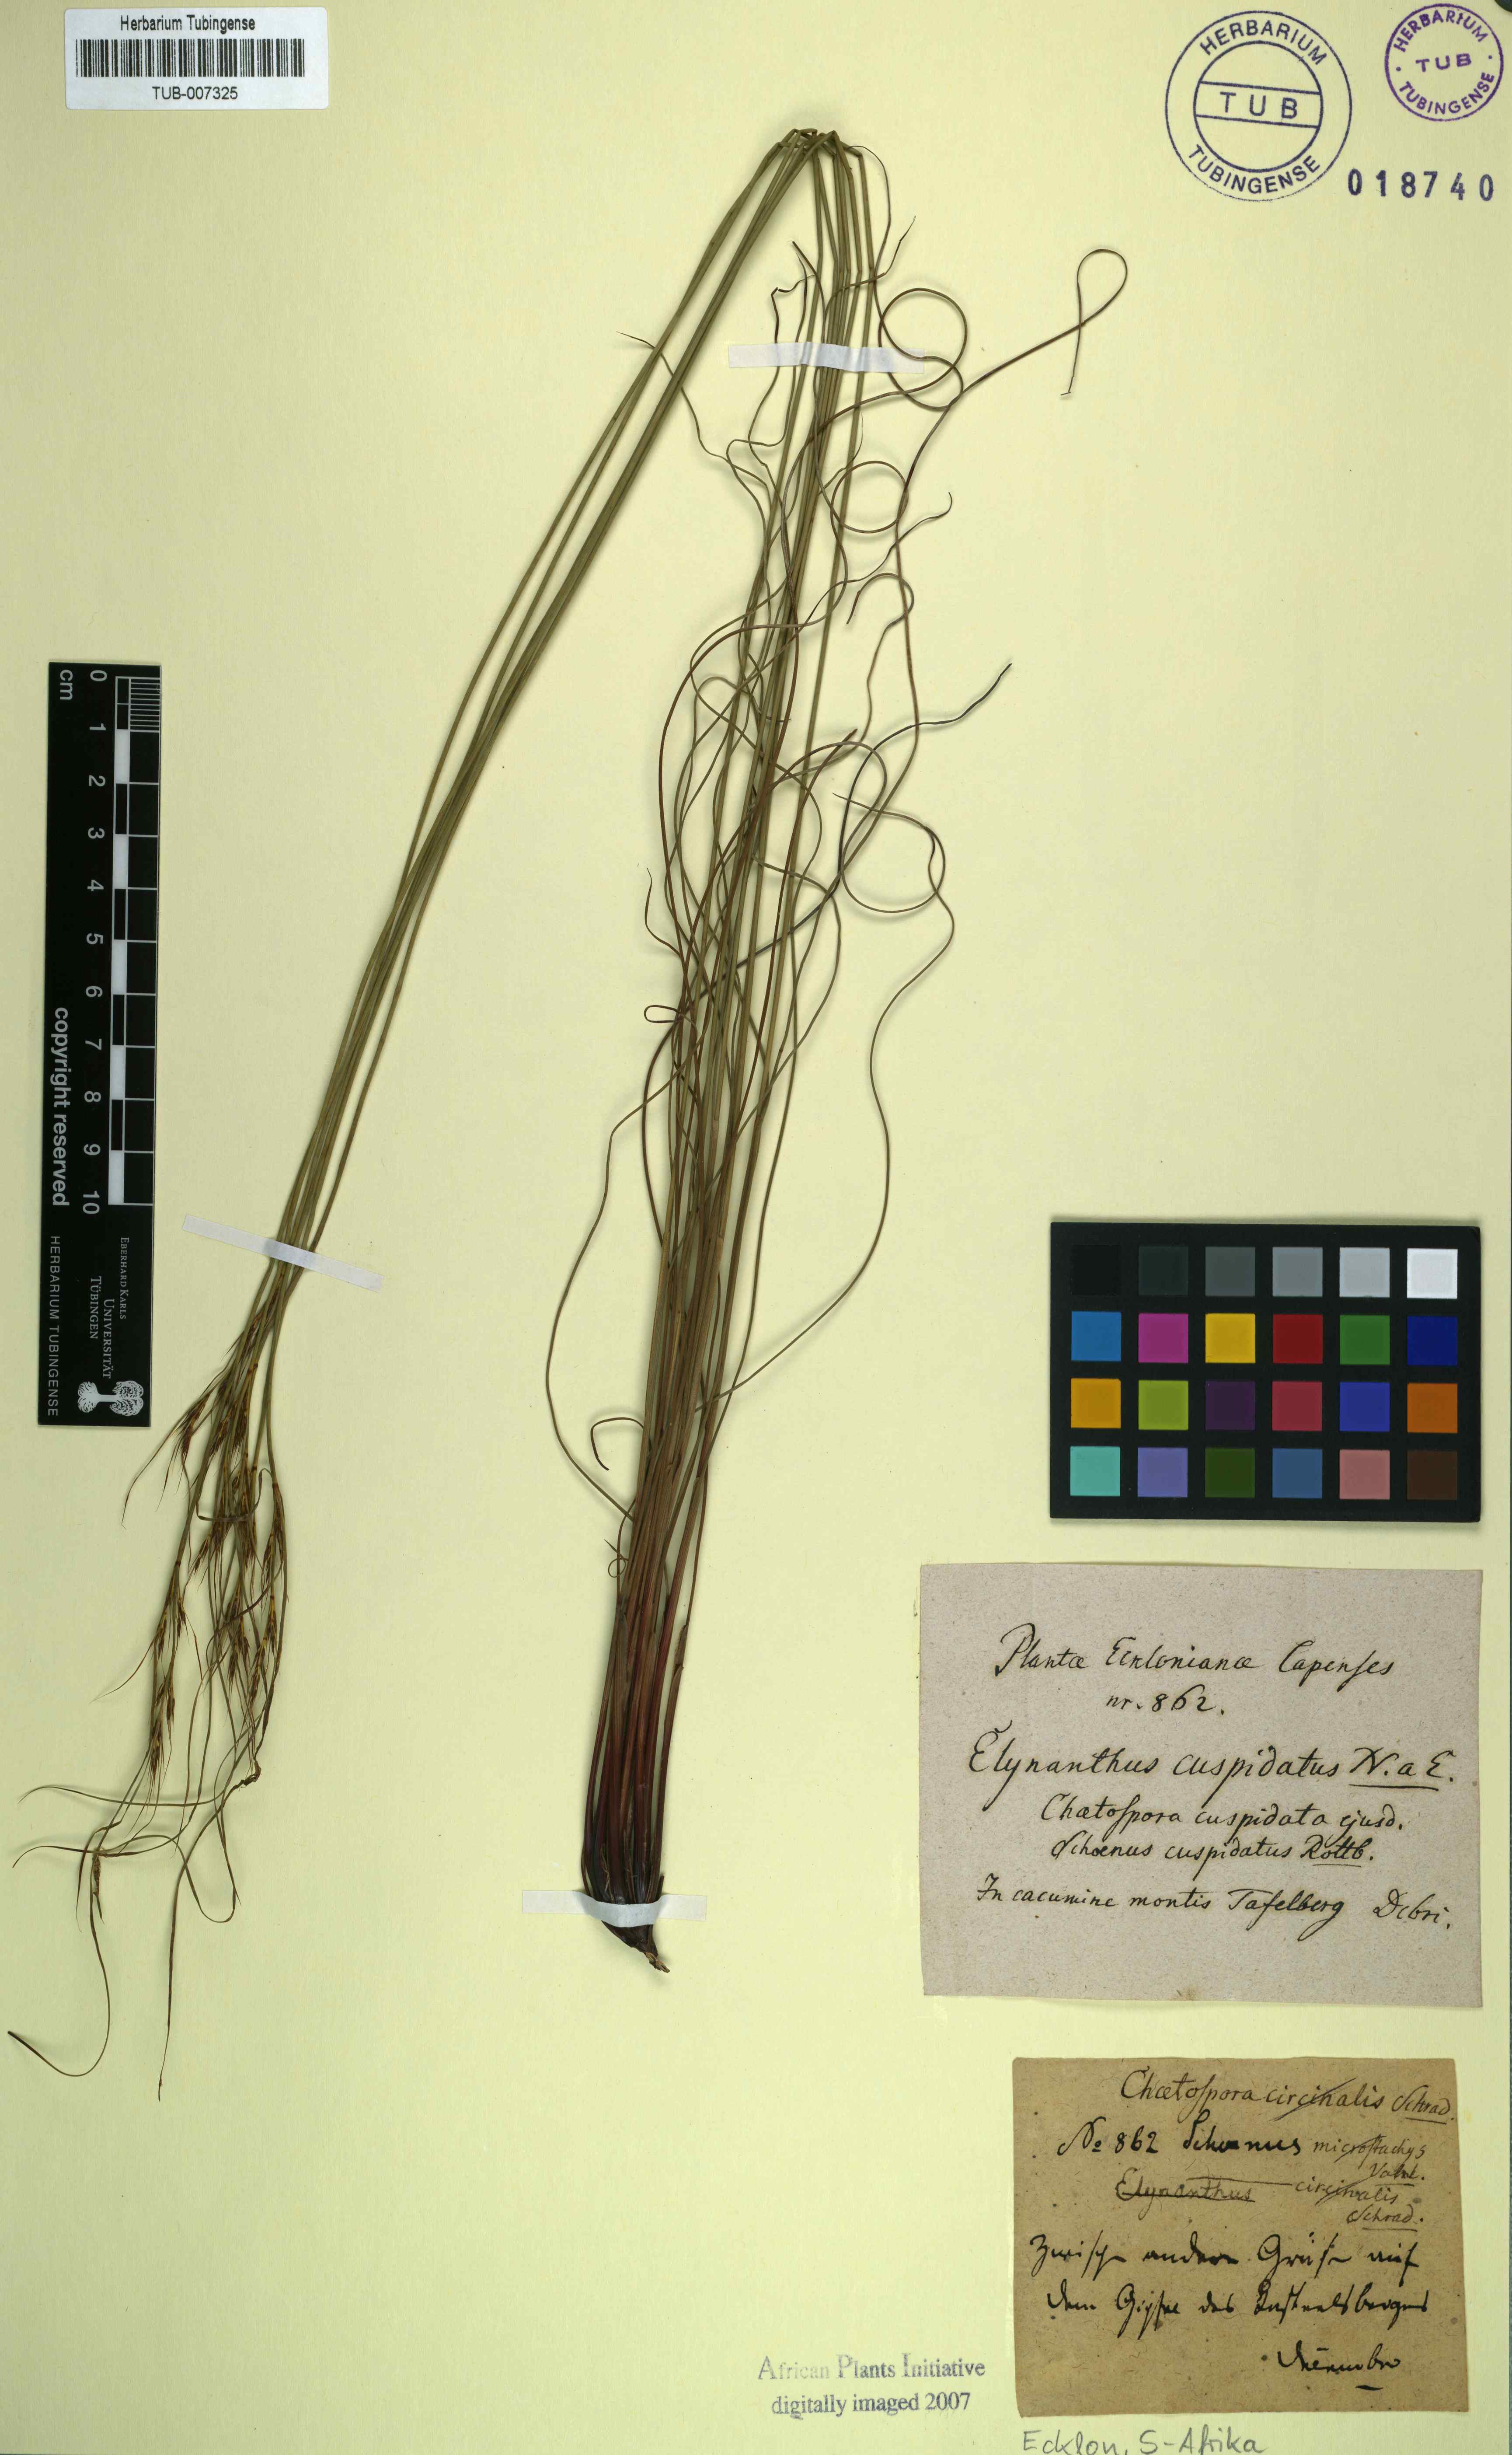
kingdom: Plantae
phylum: Tracheophyta
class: Liliopsida
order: Poales
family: Cyperaceae
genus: Schoenus
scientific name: Schoenus cuspidatus
